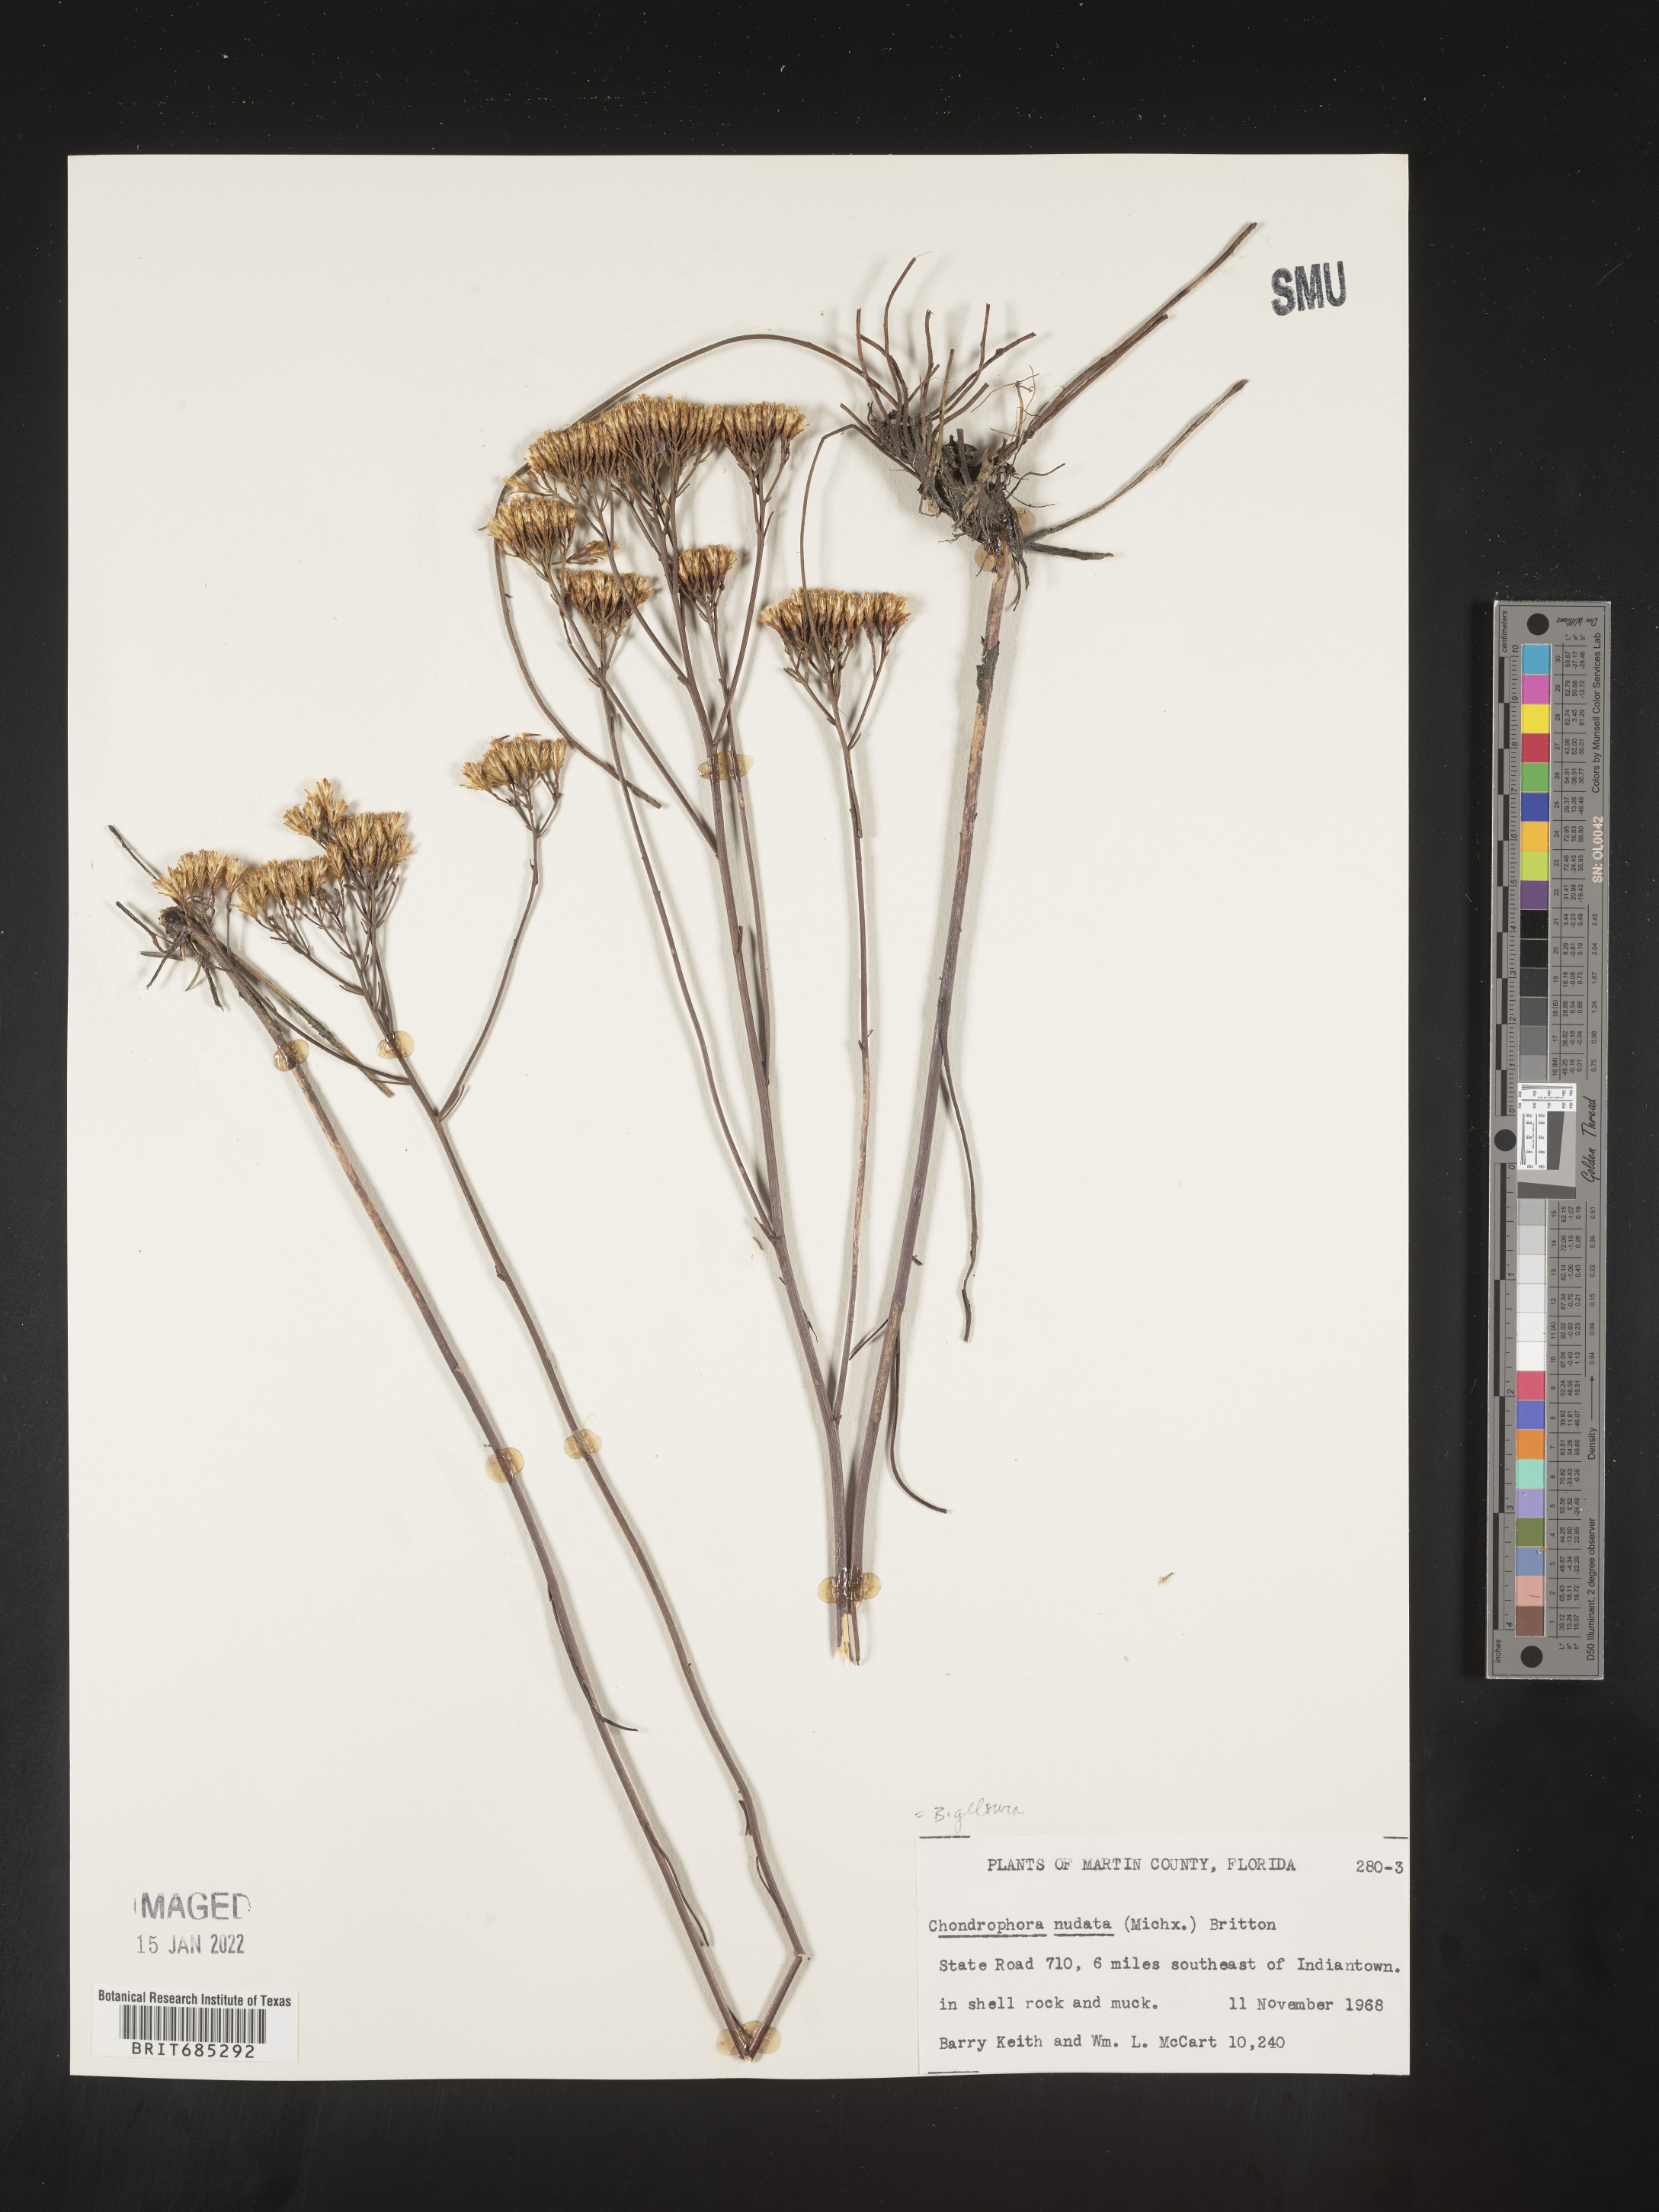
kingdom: Plantae
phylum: Tracheophyta
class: Magnoliopsida
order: Asterales
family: Asteraceae
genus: Bigelowia
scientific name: Bigelowia nudata
